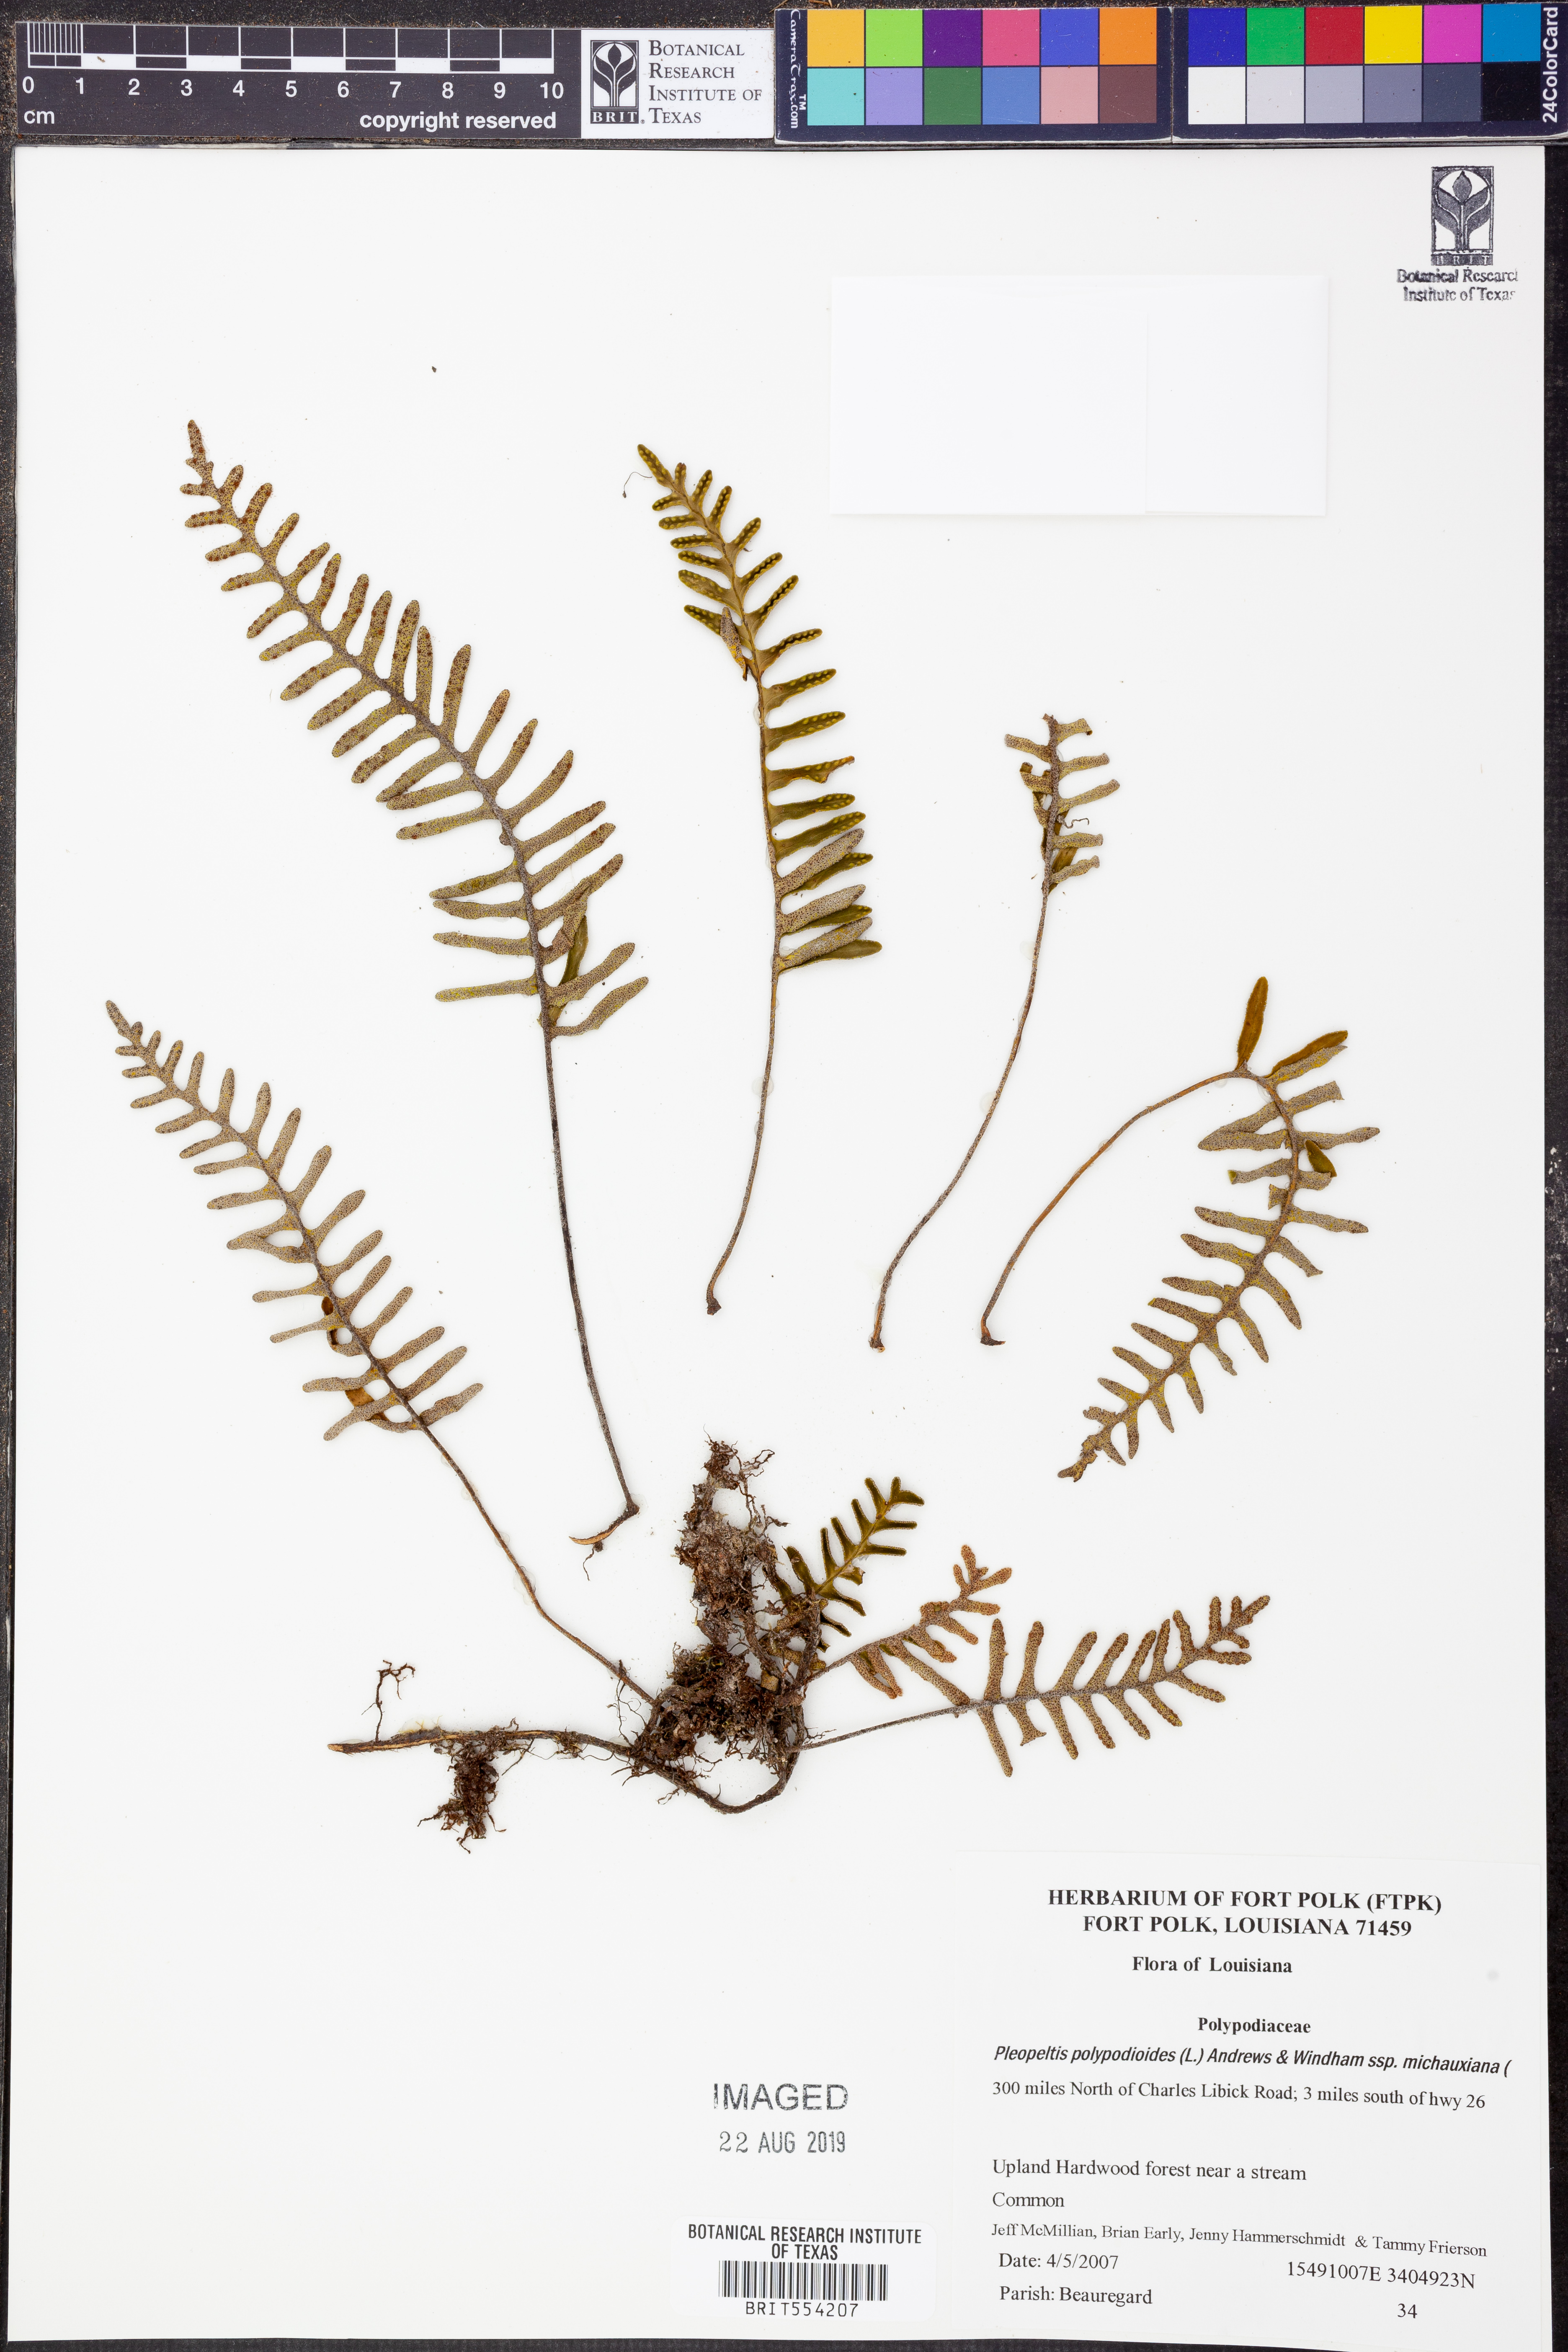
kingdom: Plantae
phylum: Tracheophyta
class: Polypodiopsida
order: Polypodiales
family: Polypodiaceae
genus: Pleopeltis
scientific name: Pleopeltis michauxiana
